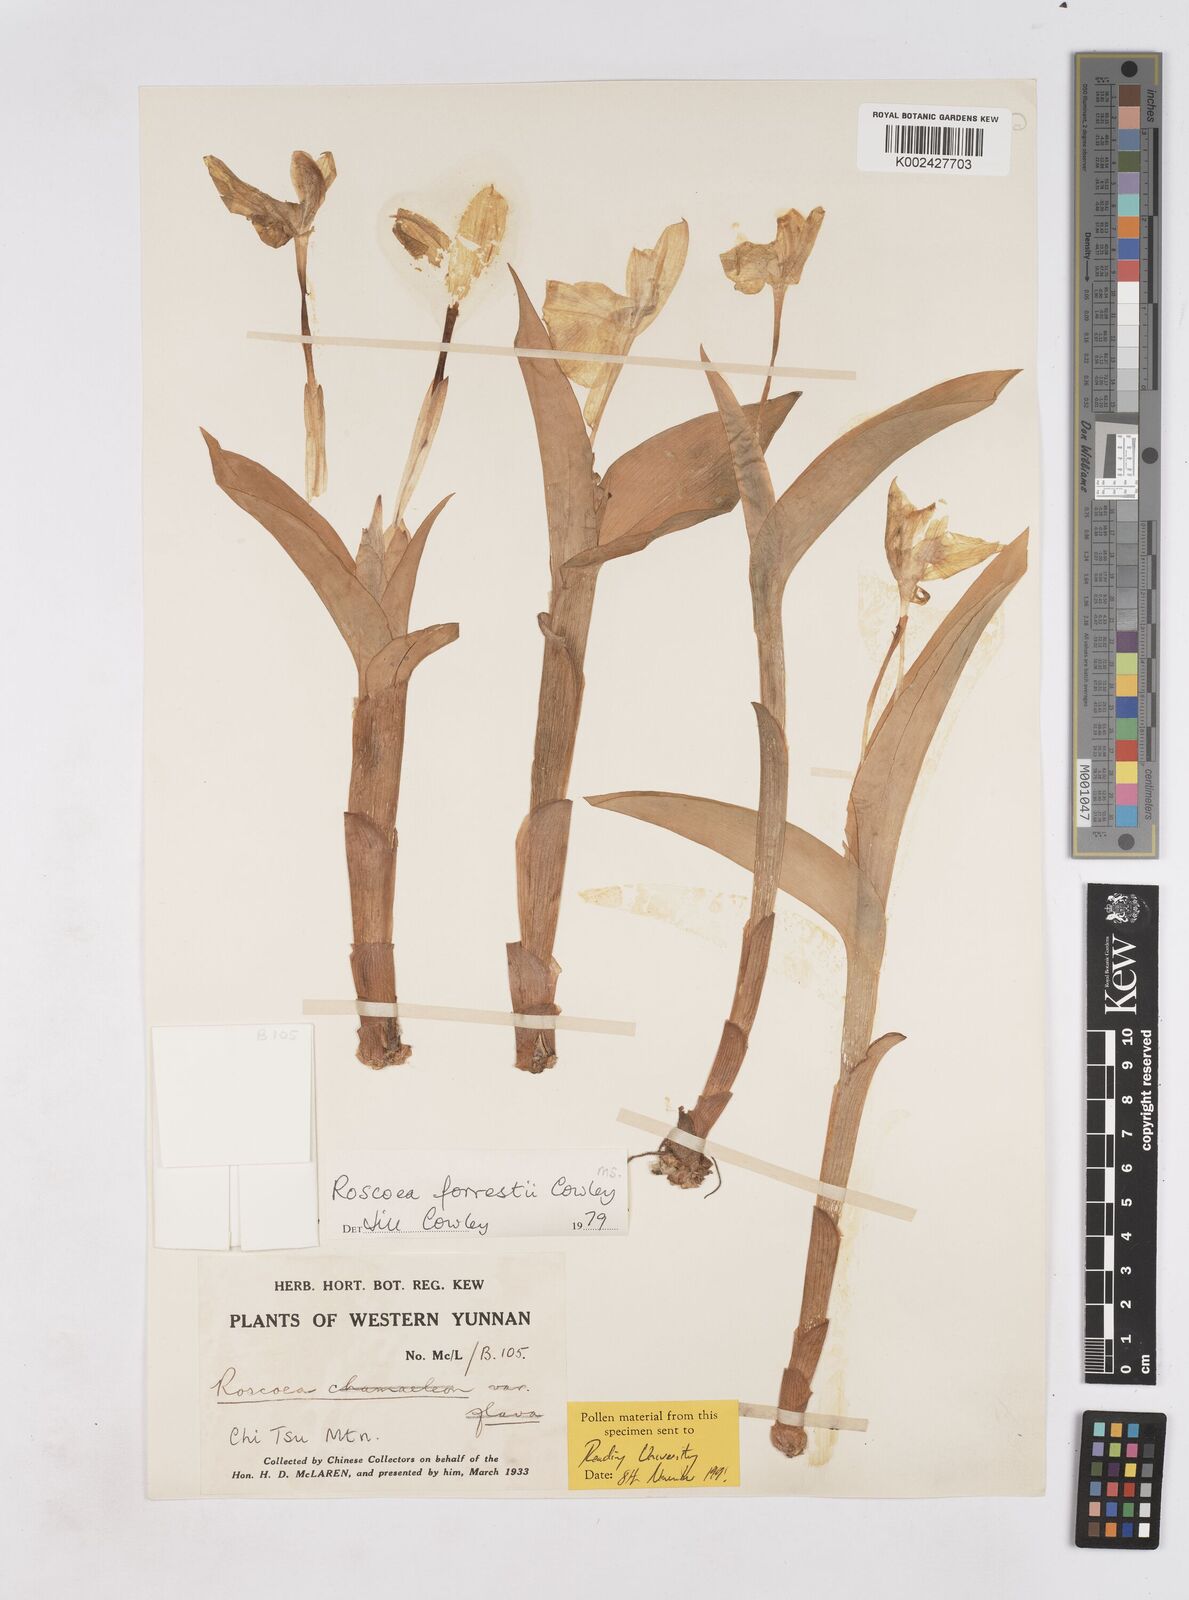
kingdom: Plantae
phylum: Tracheophyta
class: Liliopsida
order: Zingiberales
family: Zingiberaceae
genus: Roscoea
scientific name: Roscoea forrestii
